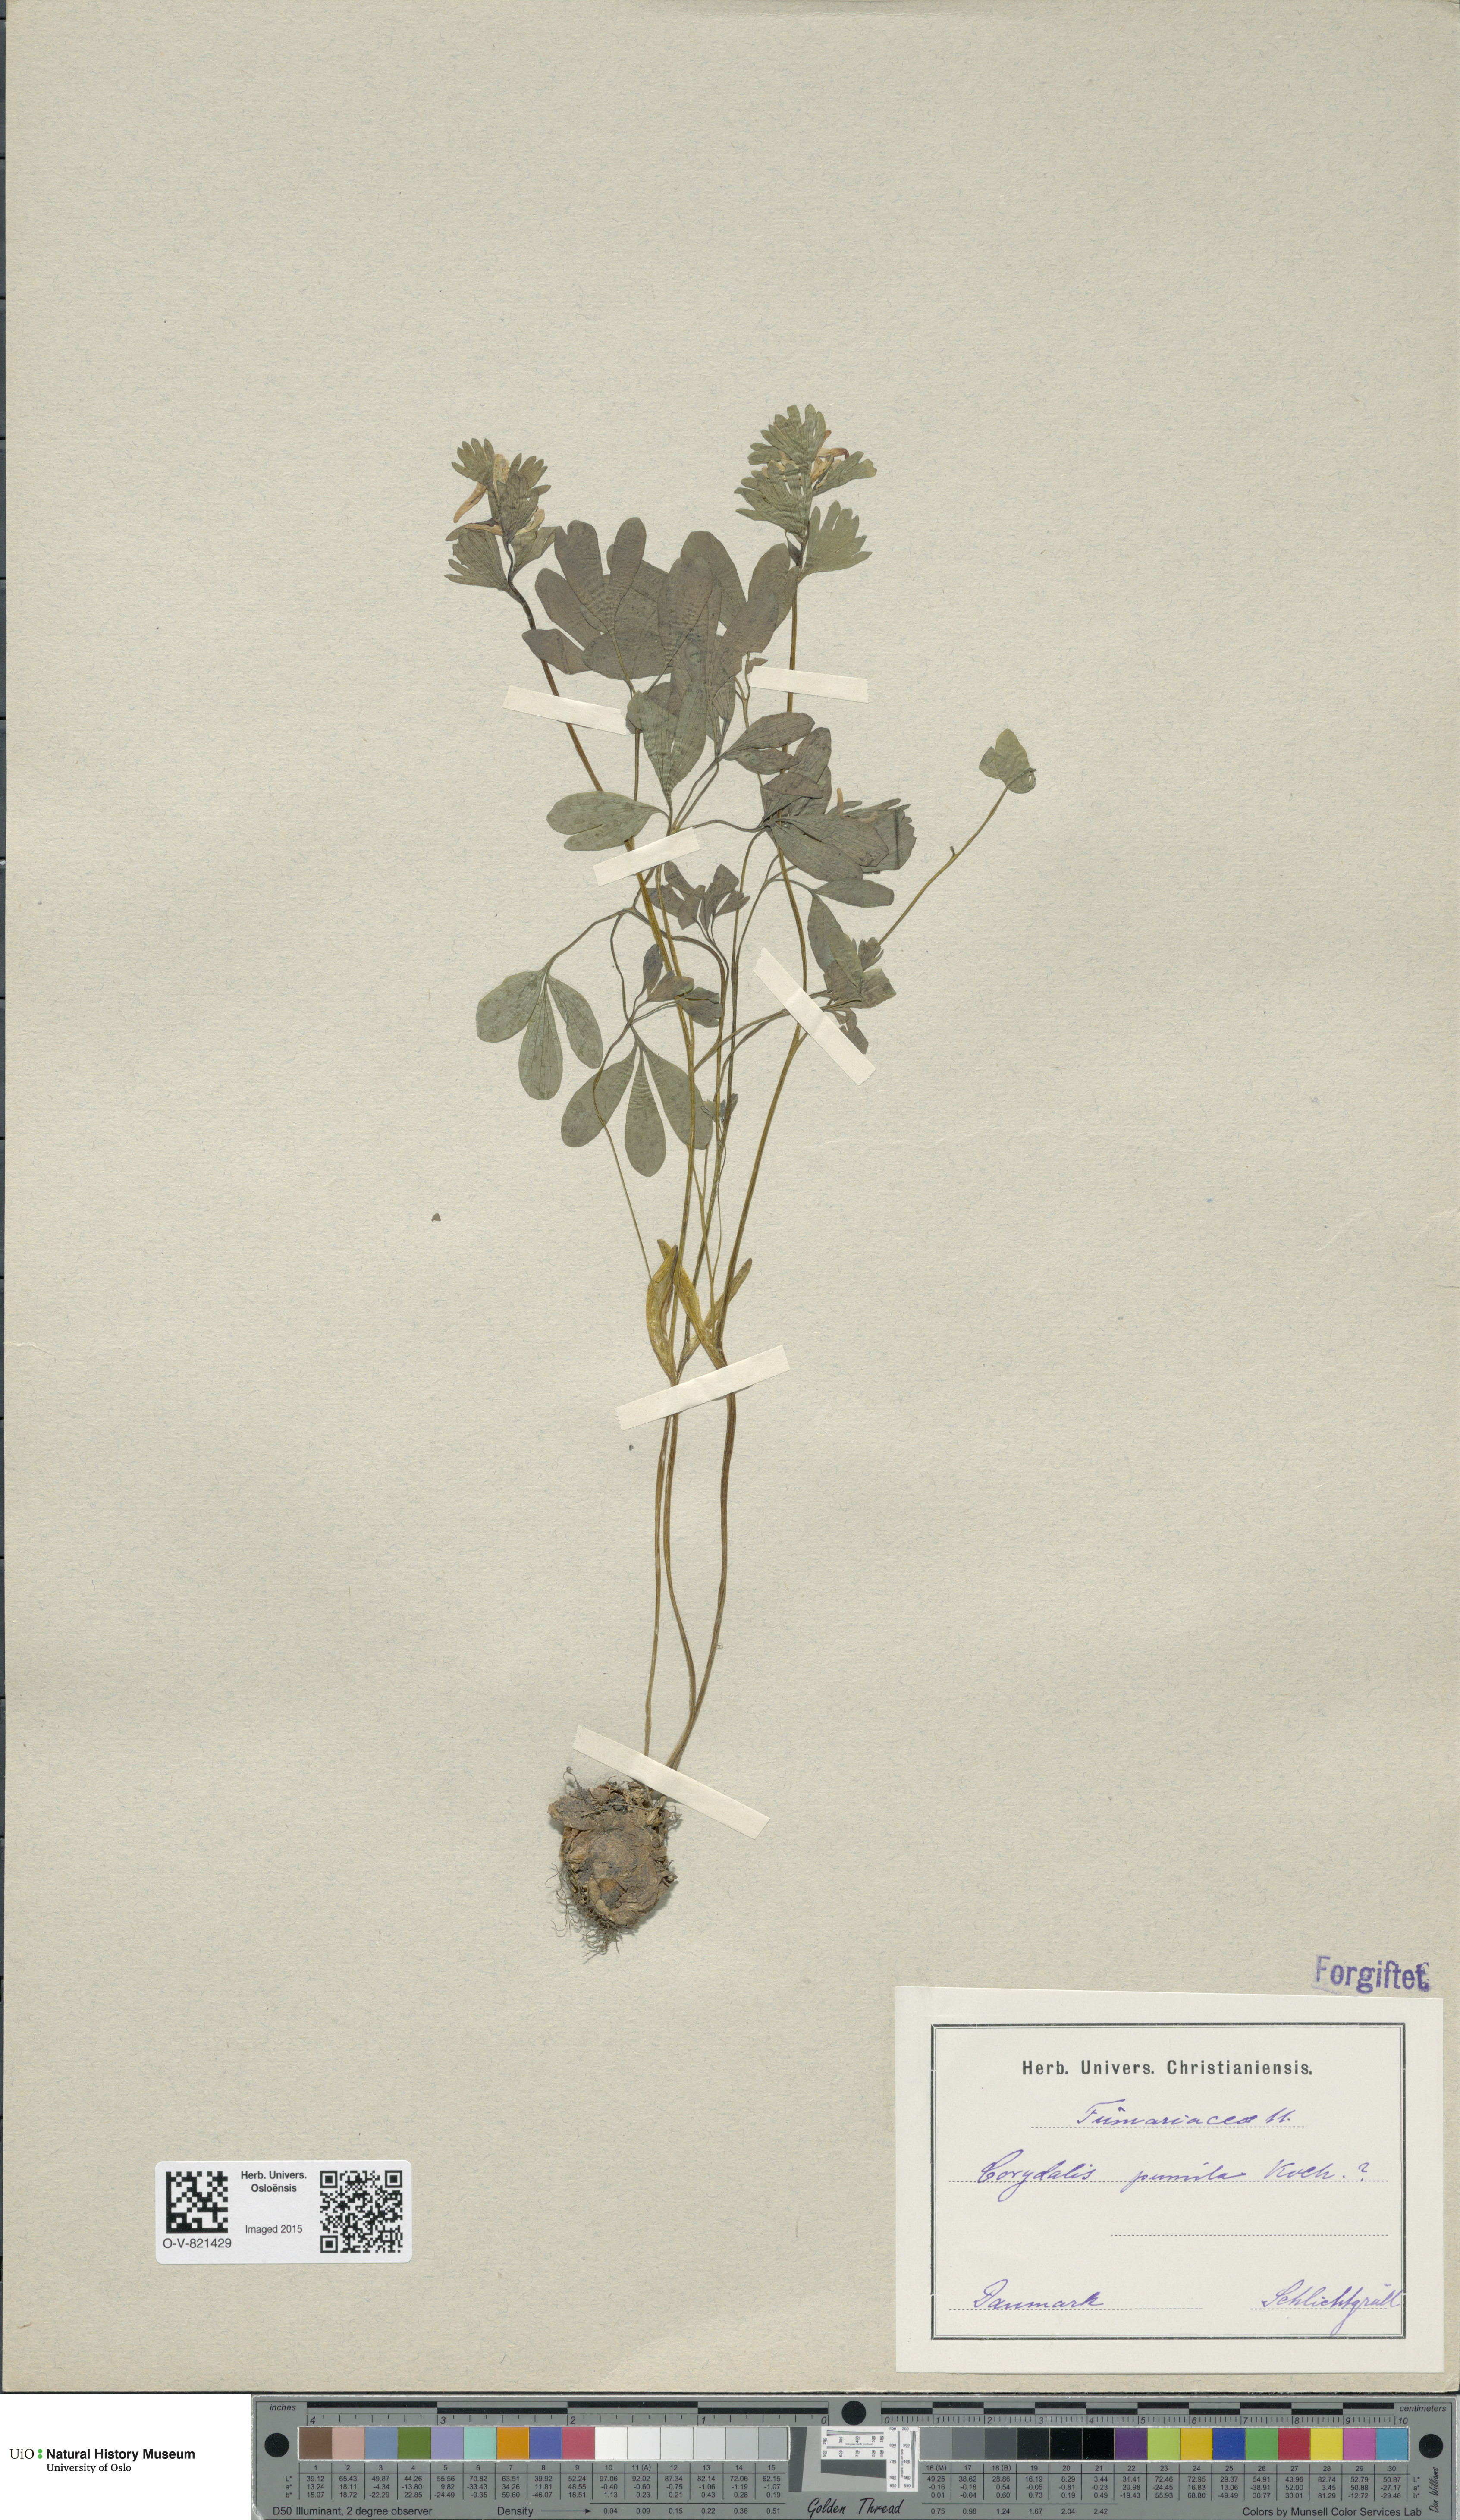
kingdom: Plantae
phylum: Tracheophyta
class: Magnoliopsida
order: Ranunculales
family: Papaveraceae
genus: Corydalis
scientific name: Corydalis pumila
